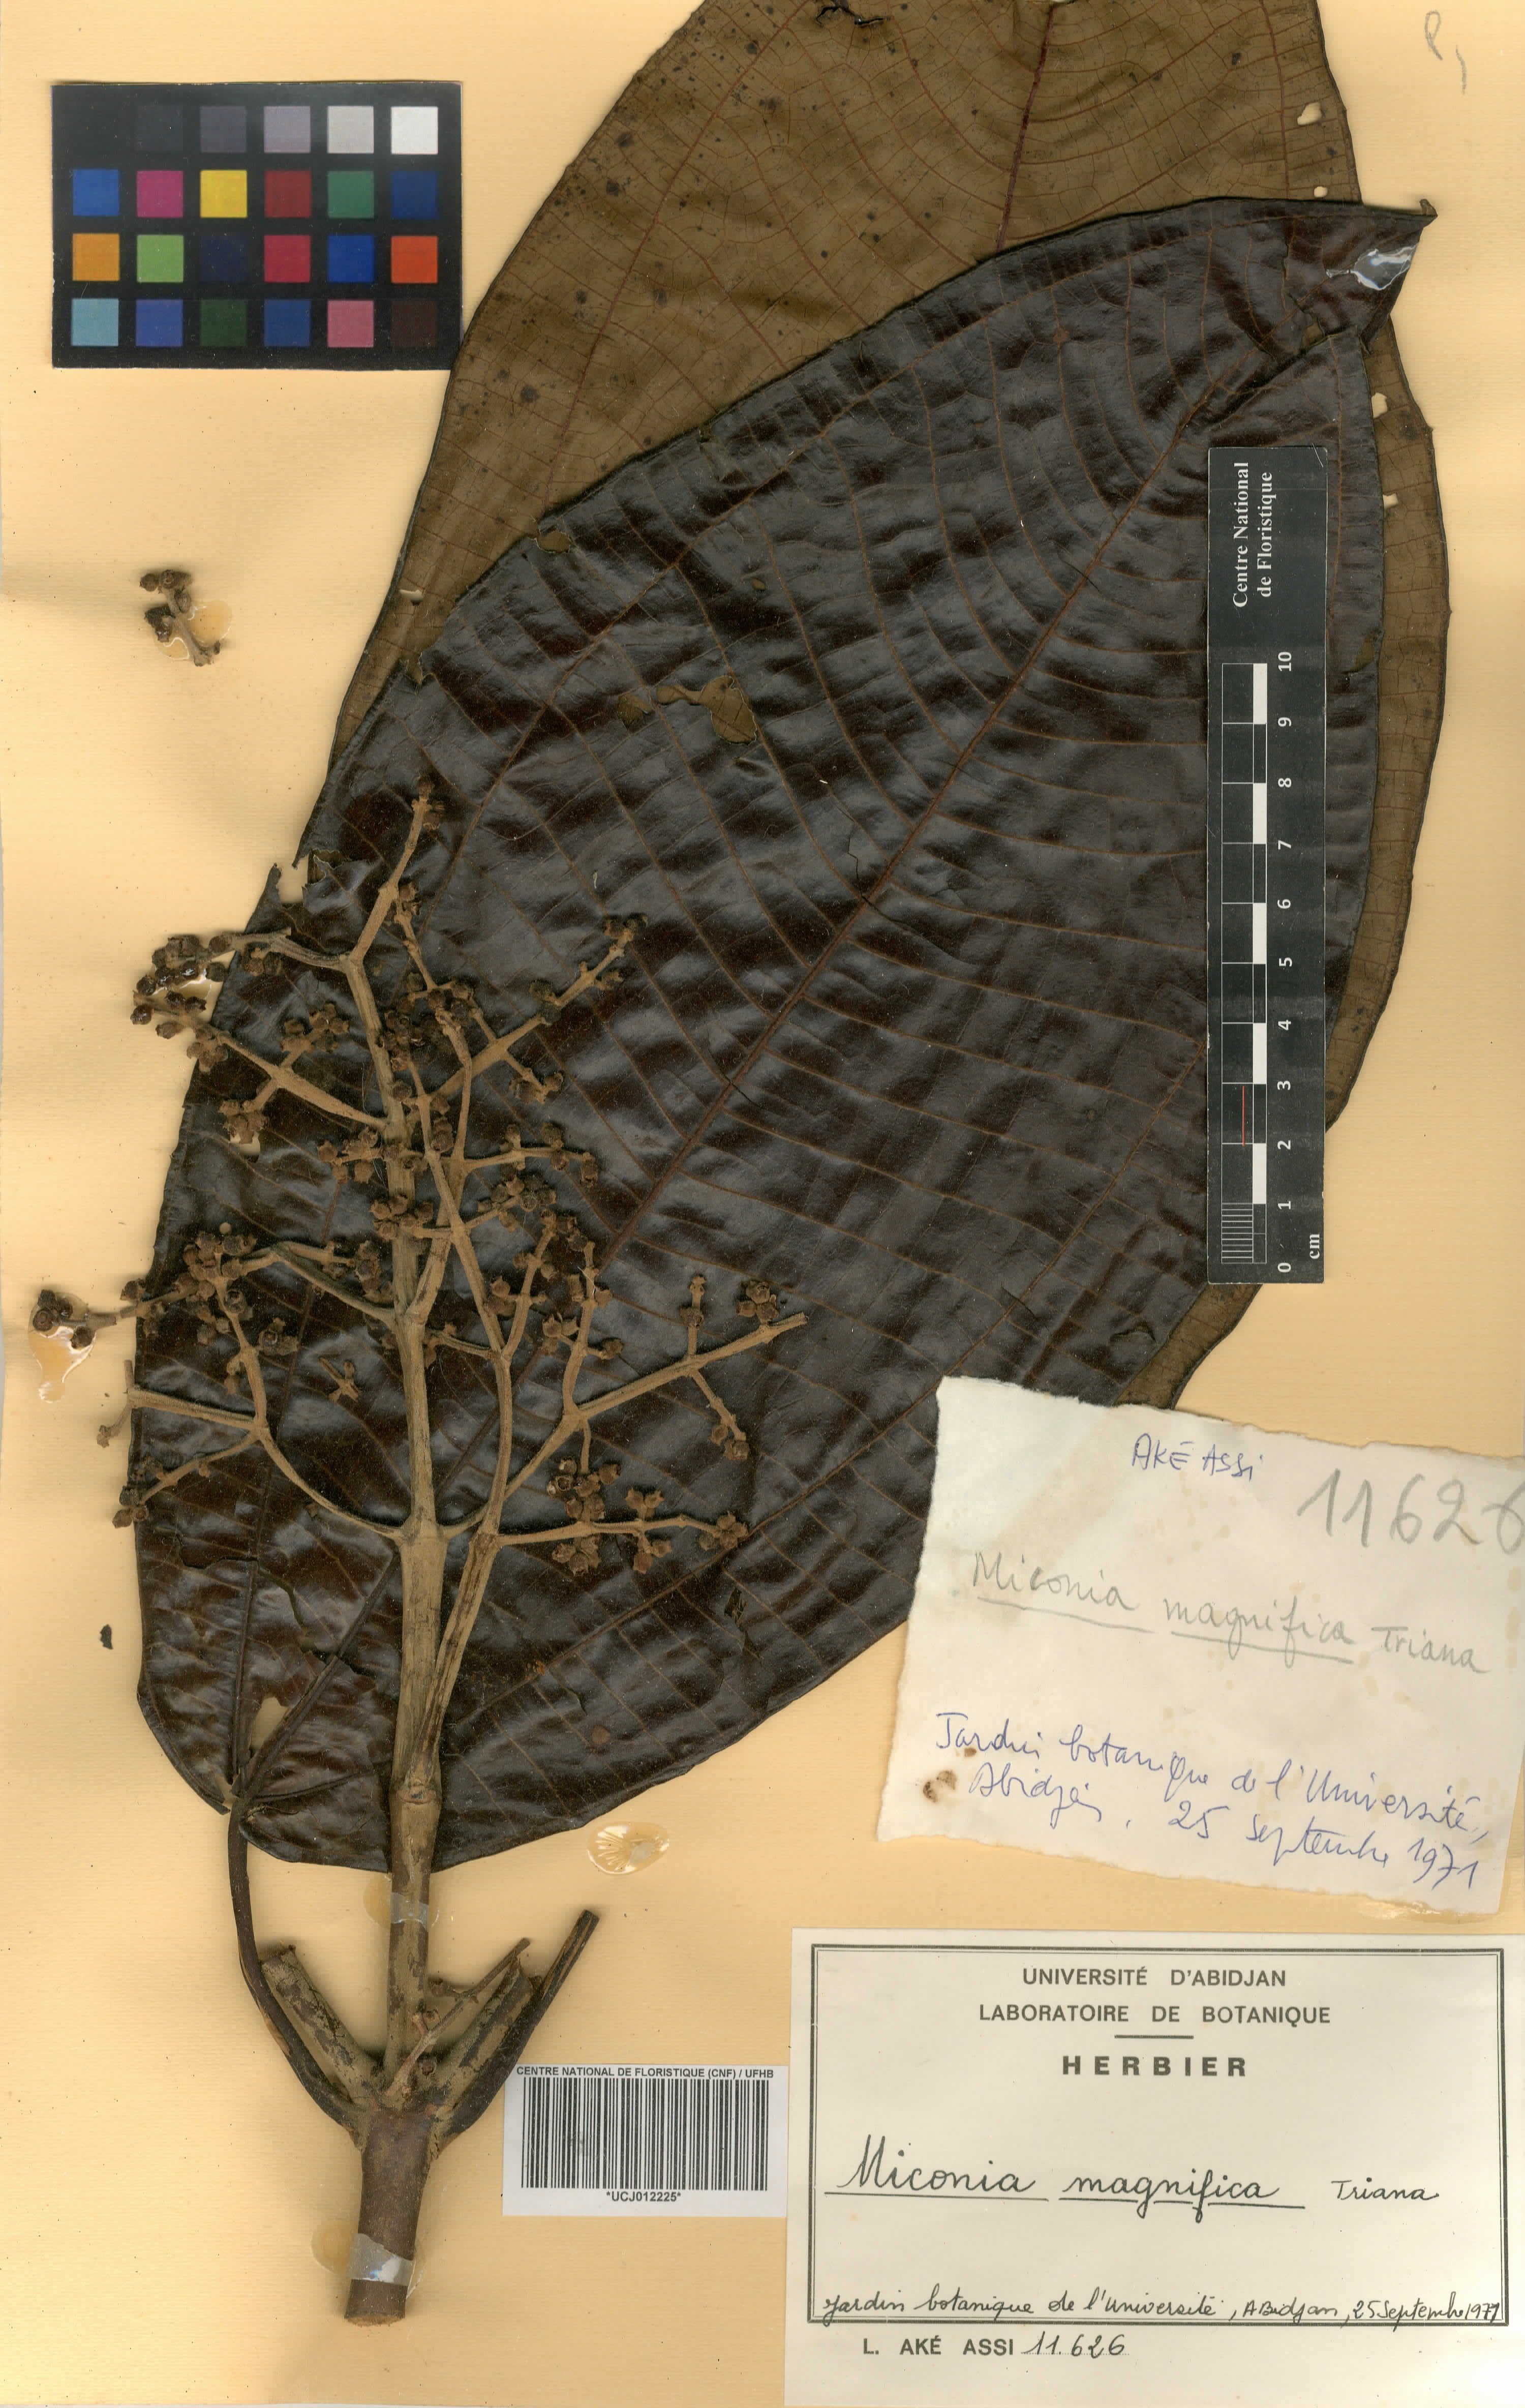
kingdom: Plantae
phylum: Tracheophyta
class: Magnoliopsida
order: Myrtales
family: Melastomataceae
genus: Miconia
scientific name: Miconia calvescens
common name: Purple plague
